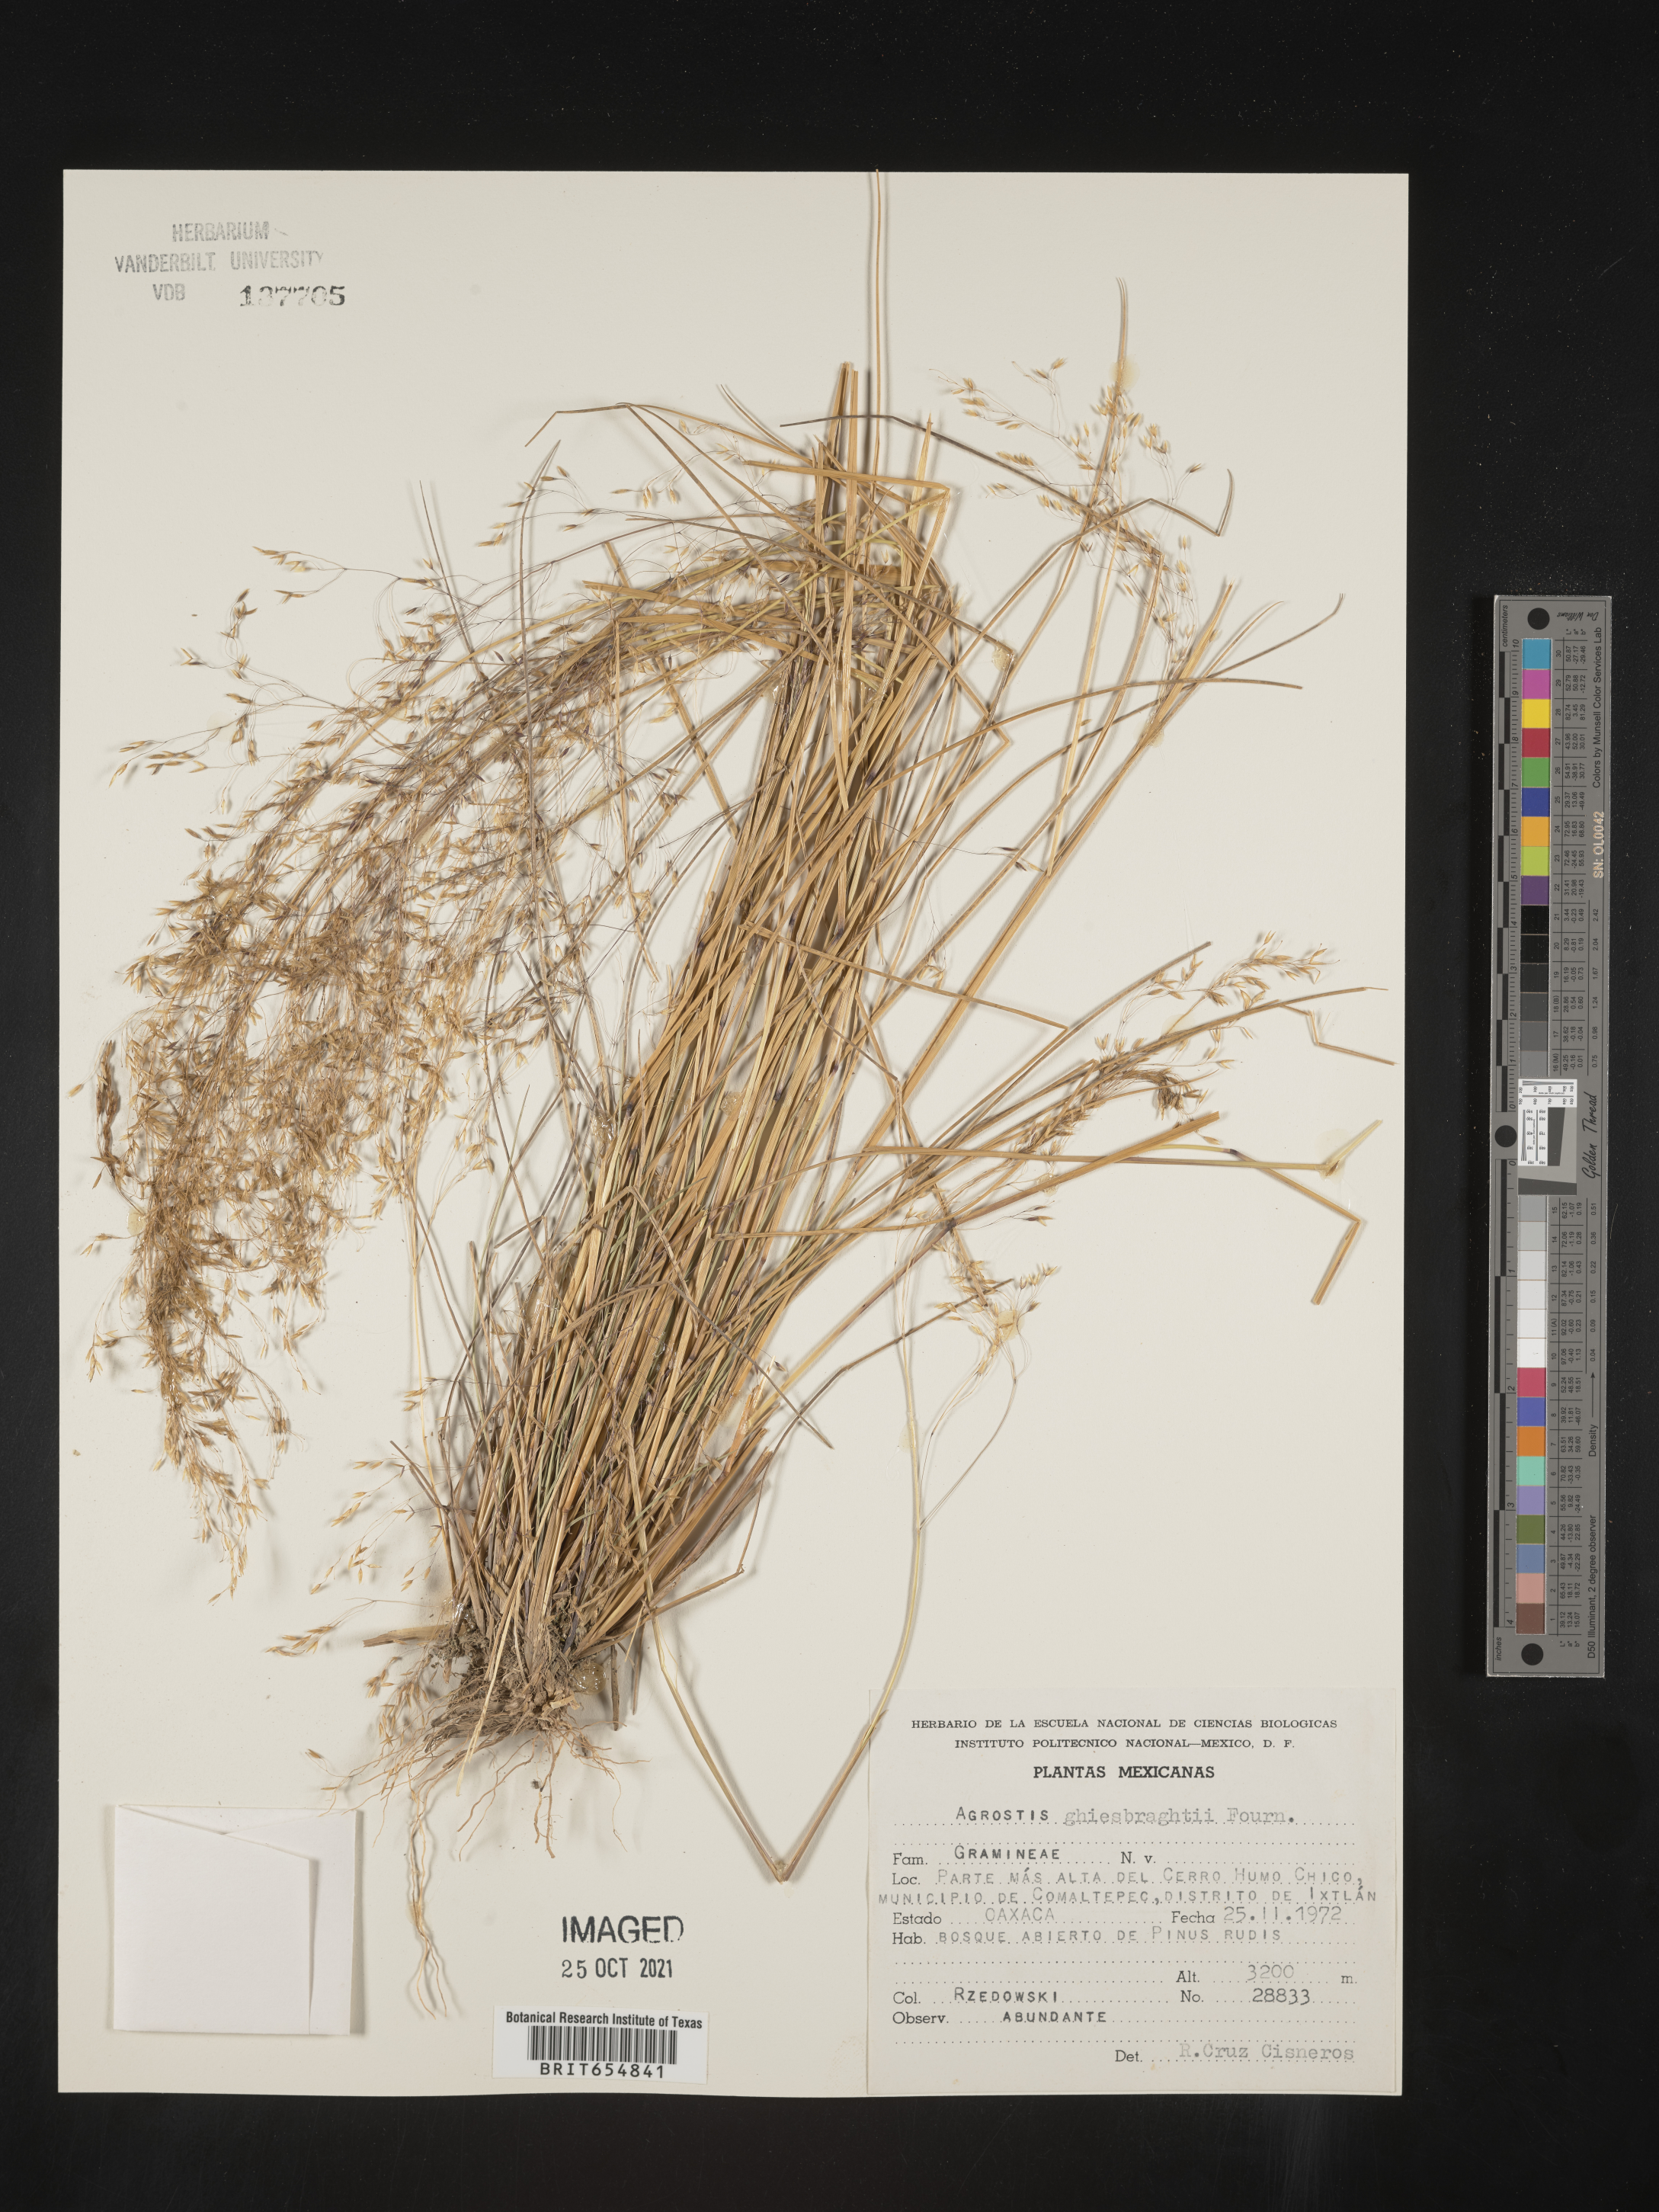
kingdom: Plantae
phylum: Tracheophyta
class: Liliopsida
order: Poales
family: Poaceae
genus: Agrostis
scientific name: Agrostis
